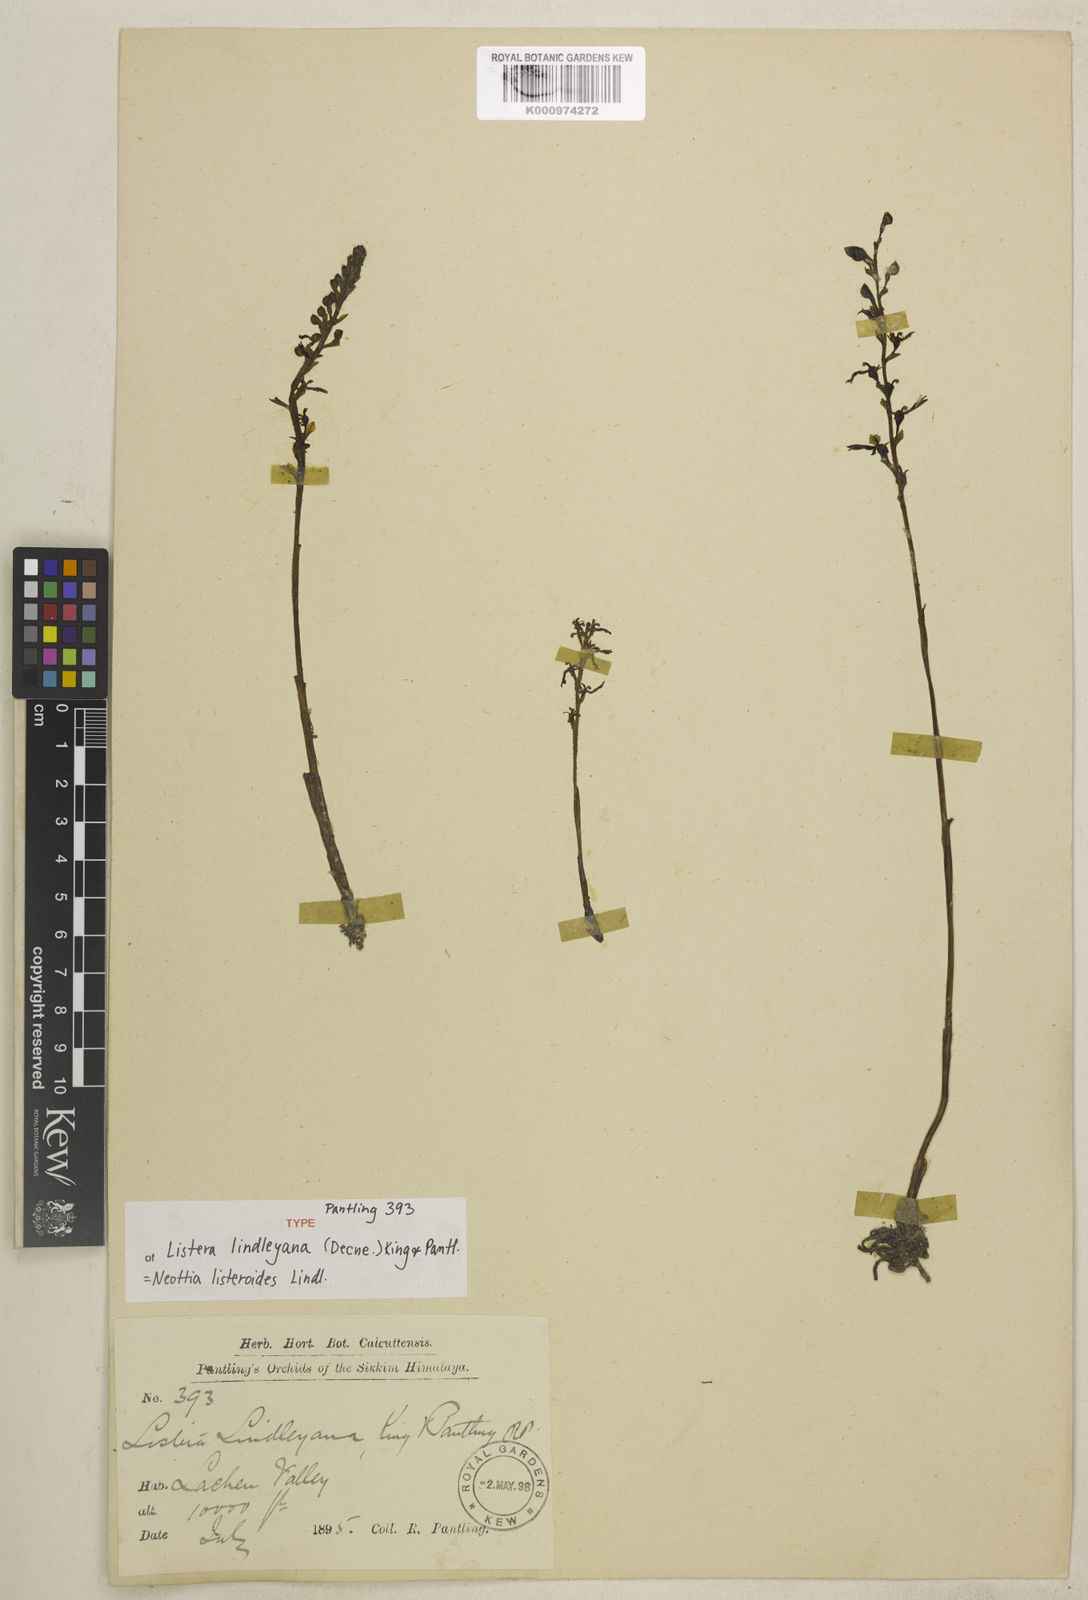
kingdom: Plantae
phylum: Tracheophyta
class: Liliopsida
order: Asparagales
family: Orchidaceae
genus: Neottia
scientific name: Neottia listeroides
